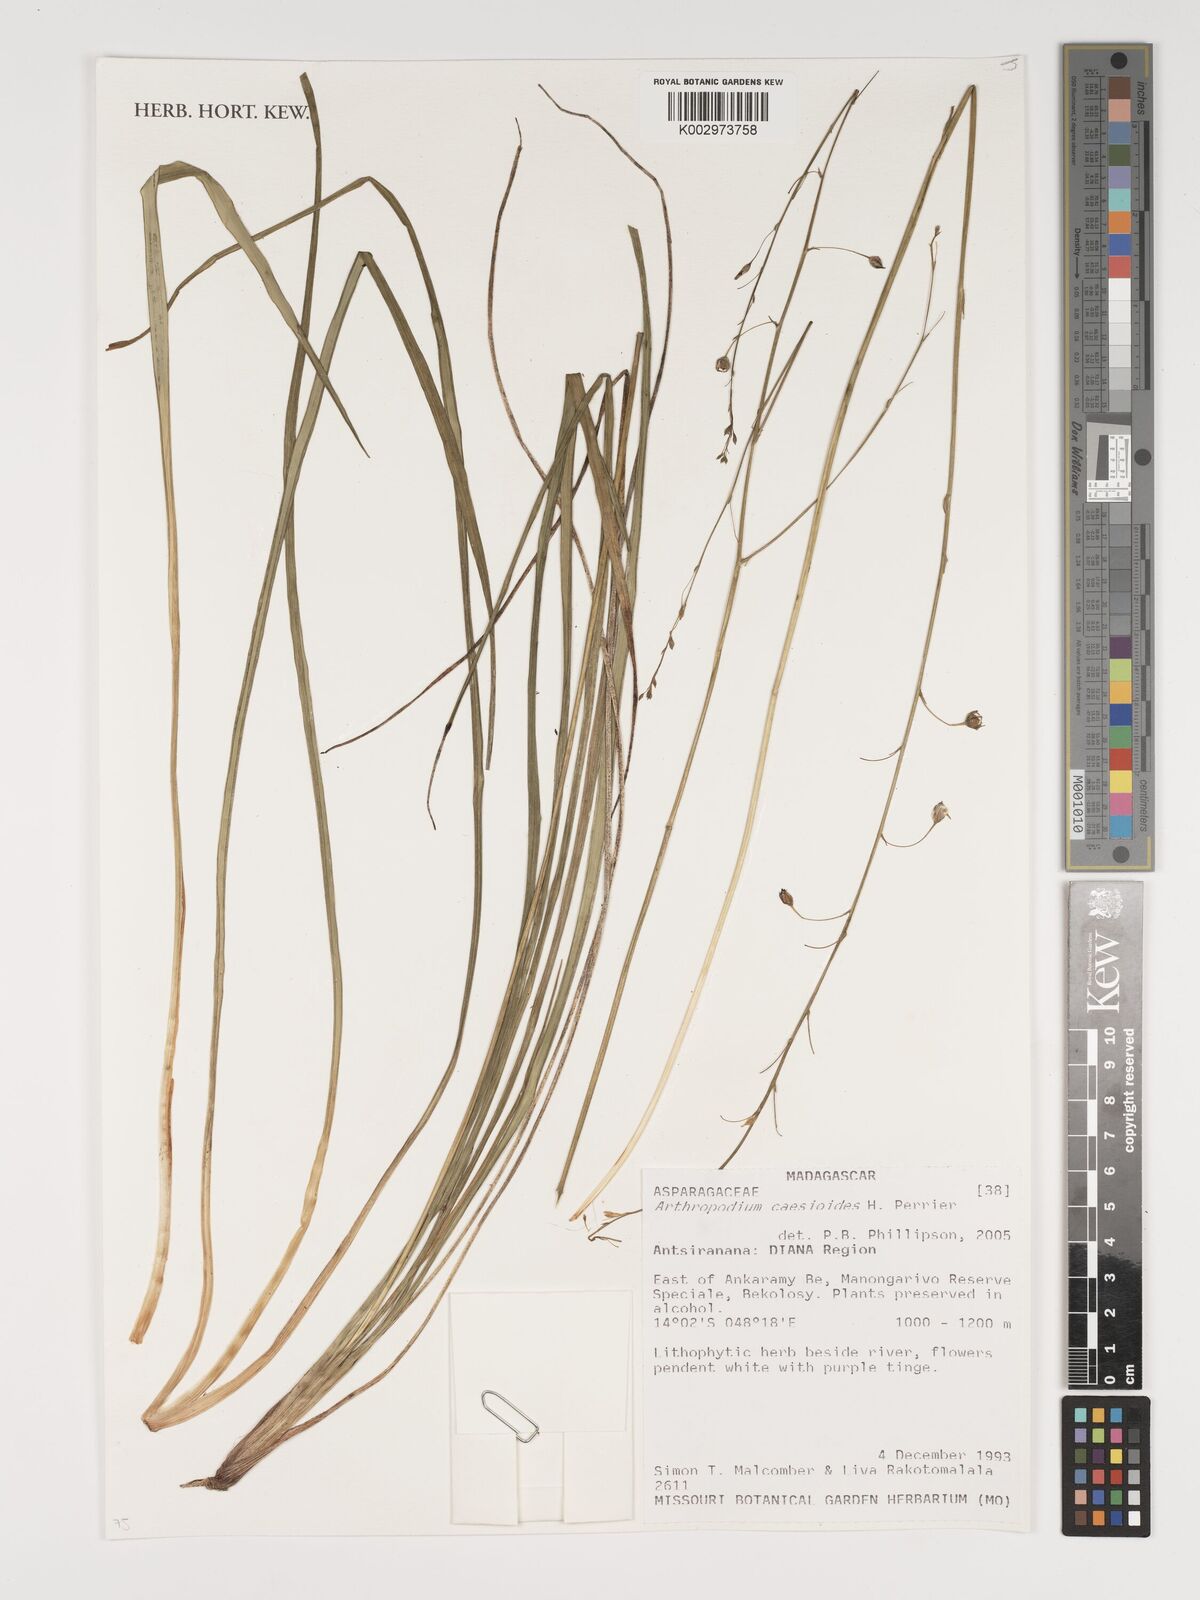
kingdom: Plantae
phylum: Tracheophyta
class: Liliopsida
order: Asparagales
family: Asparagaceae
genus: Arthropodium
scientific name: Arthropodium caesioides
